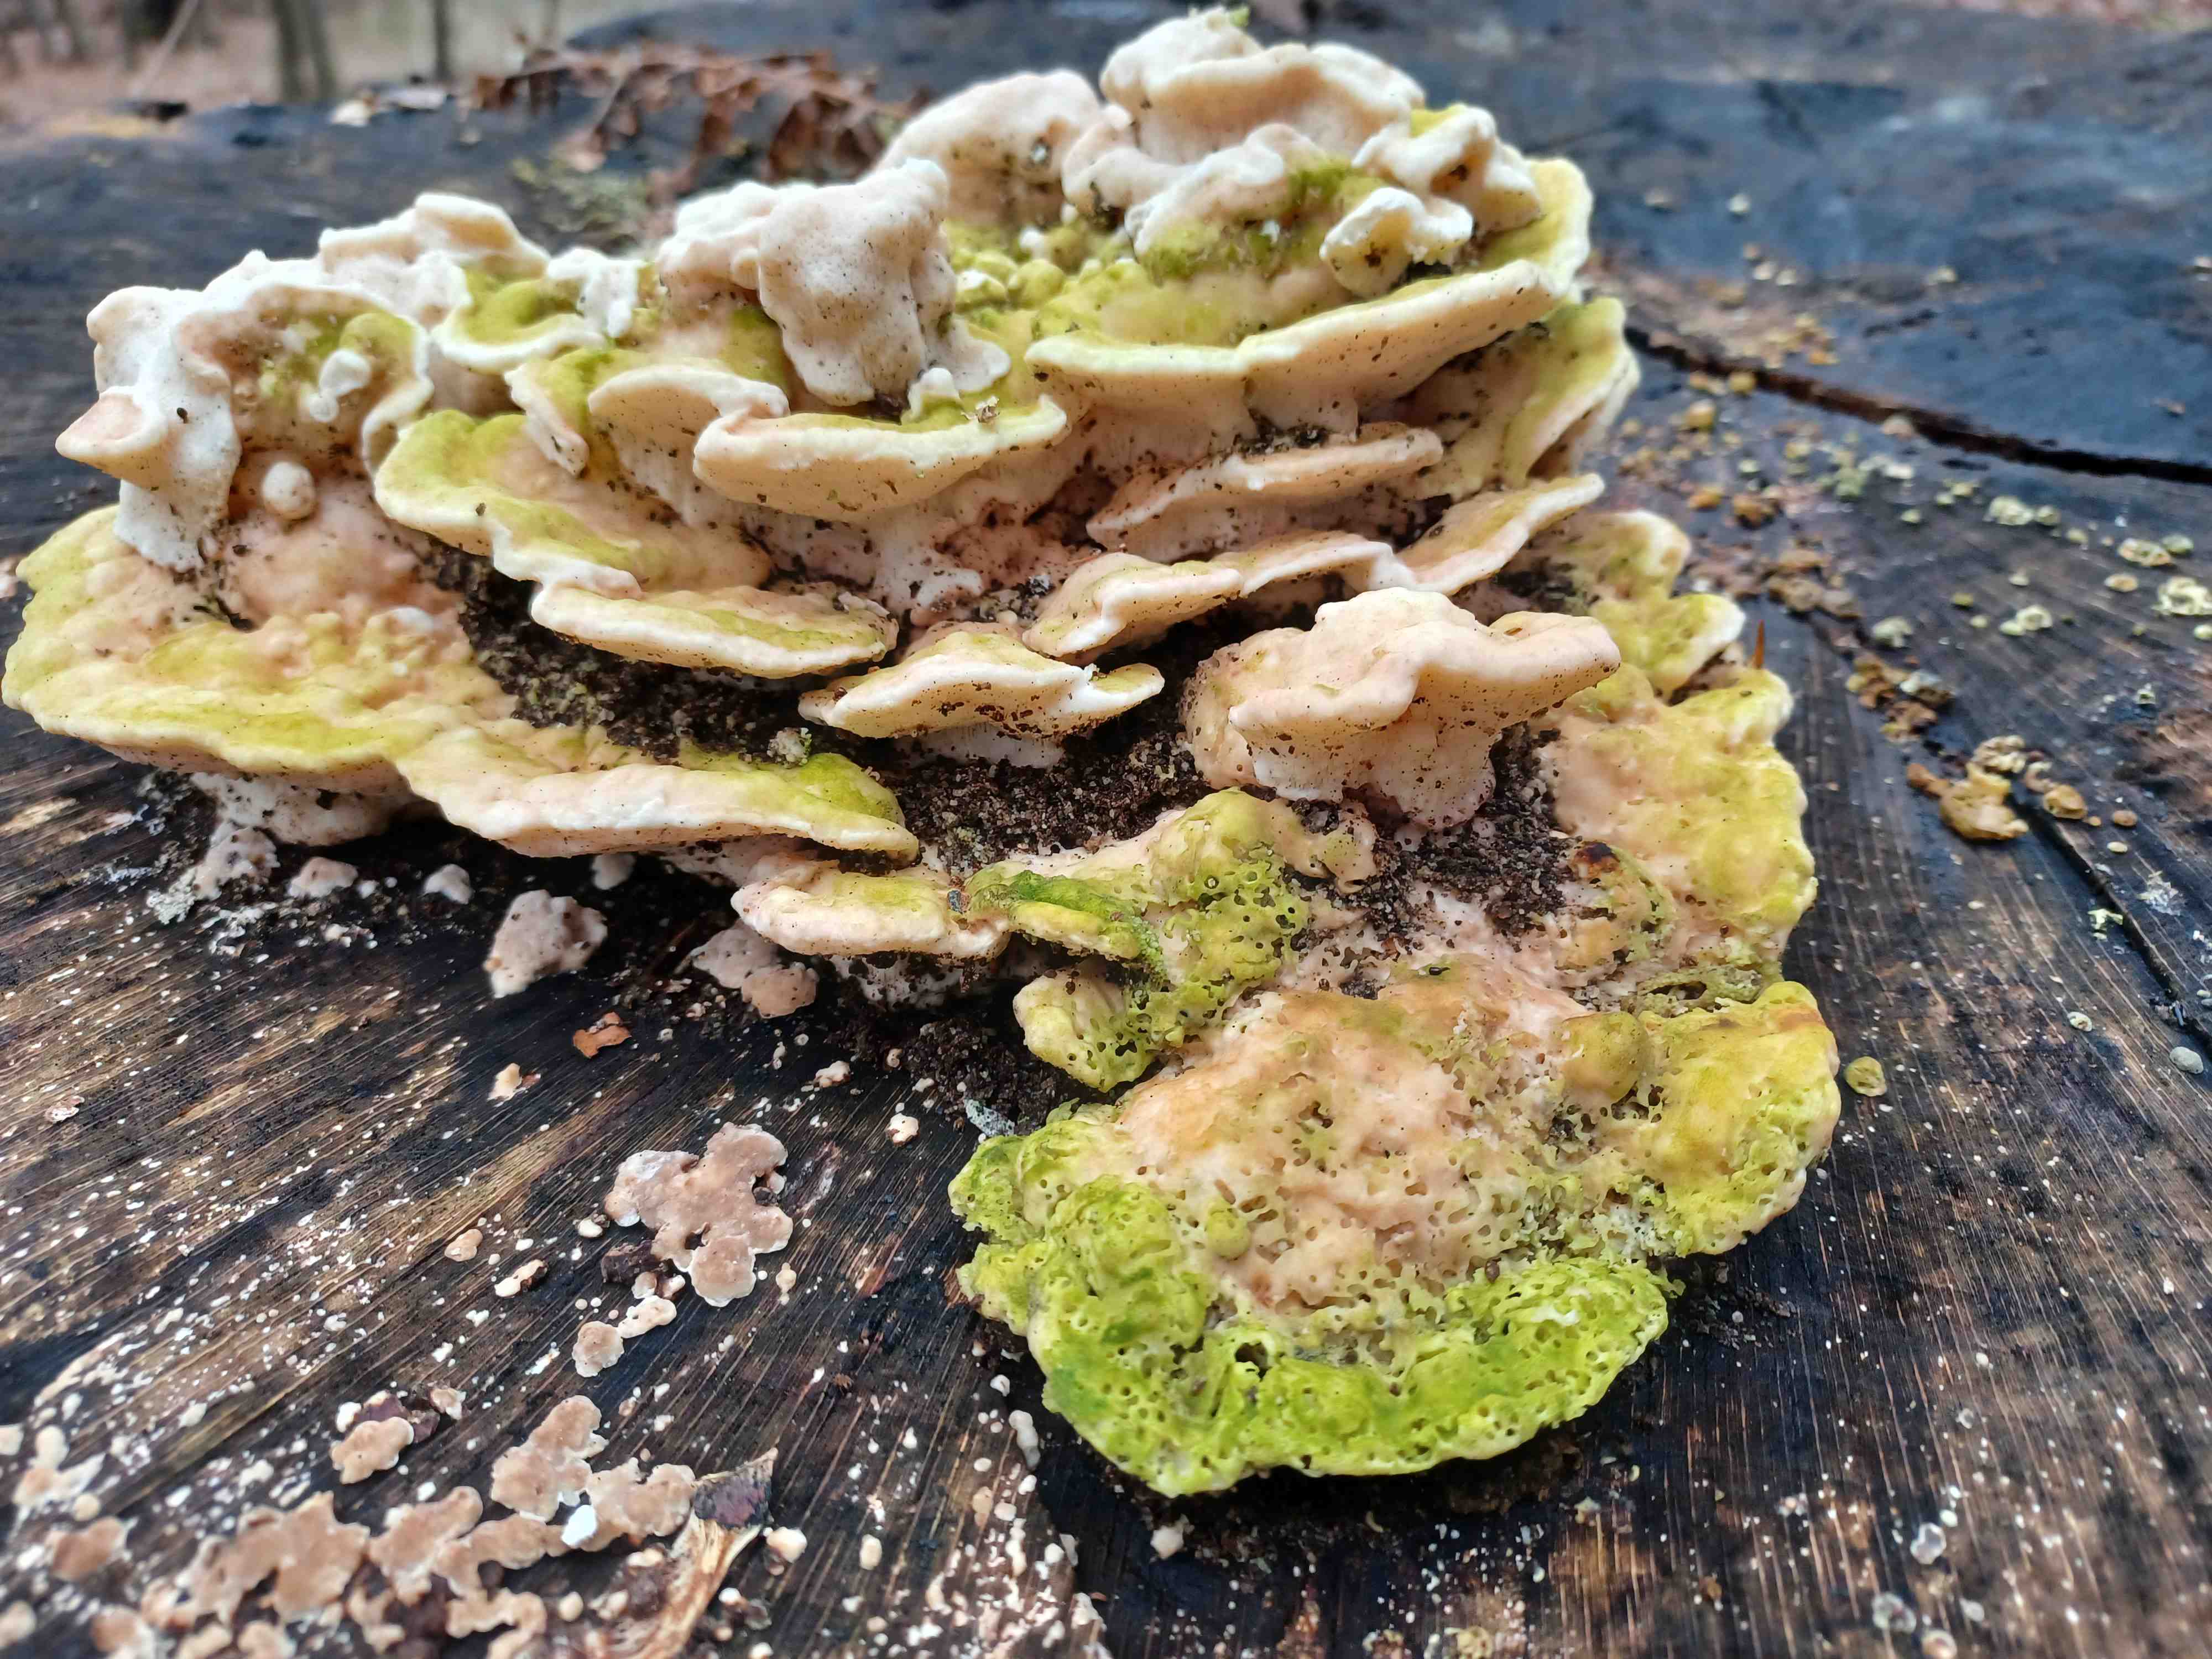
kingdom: Fungi
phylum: Basidiomycota
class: Agaricomycetes
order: Polyporales
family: Polyporaceae
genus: Trametes
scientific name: Trametes gibbosa
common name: puklet læderporesvamp
